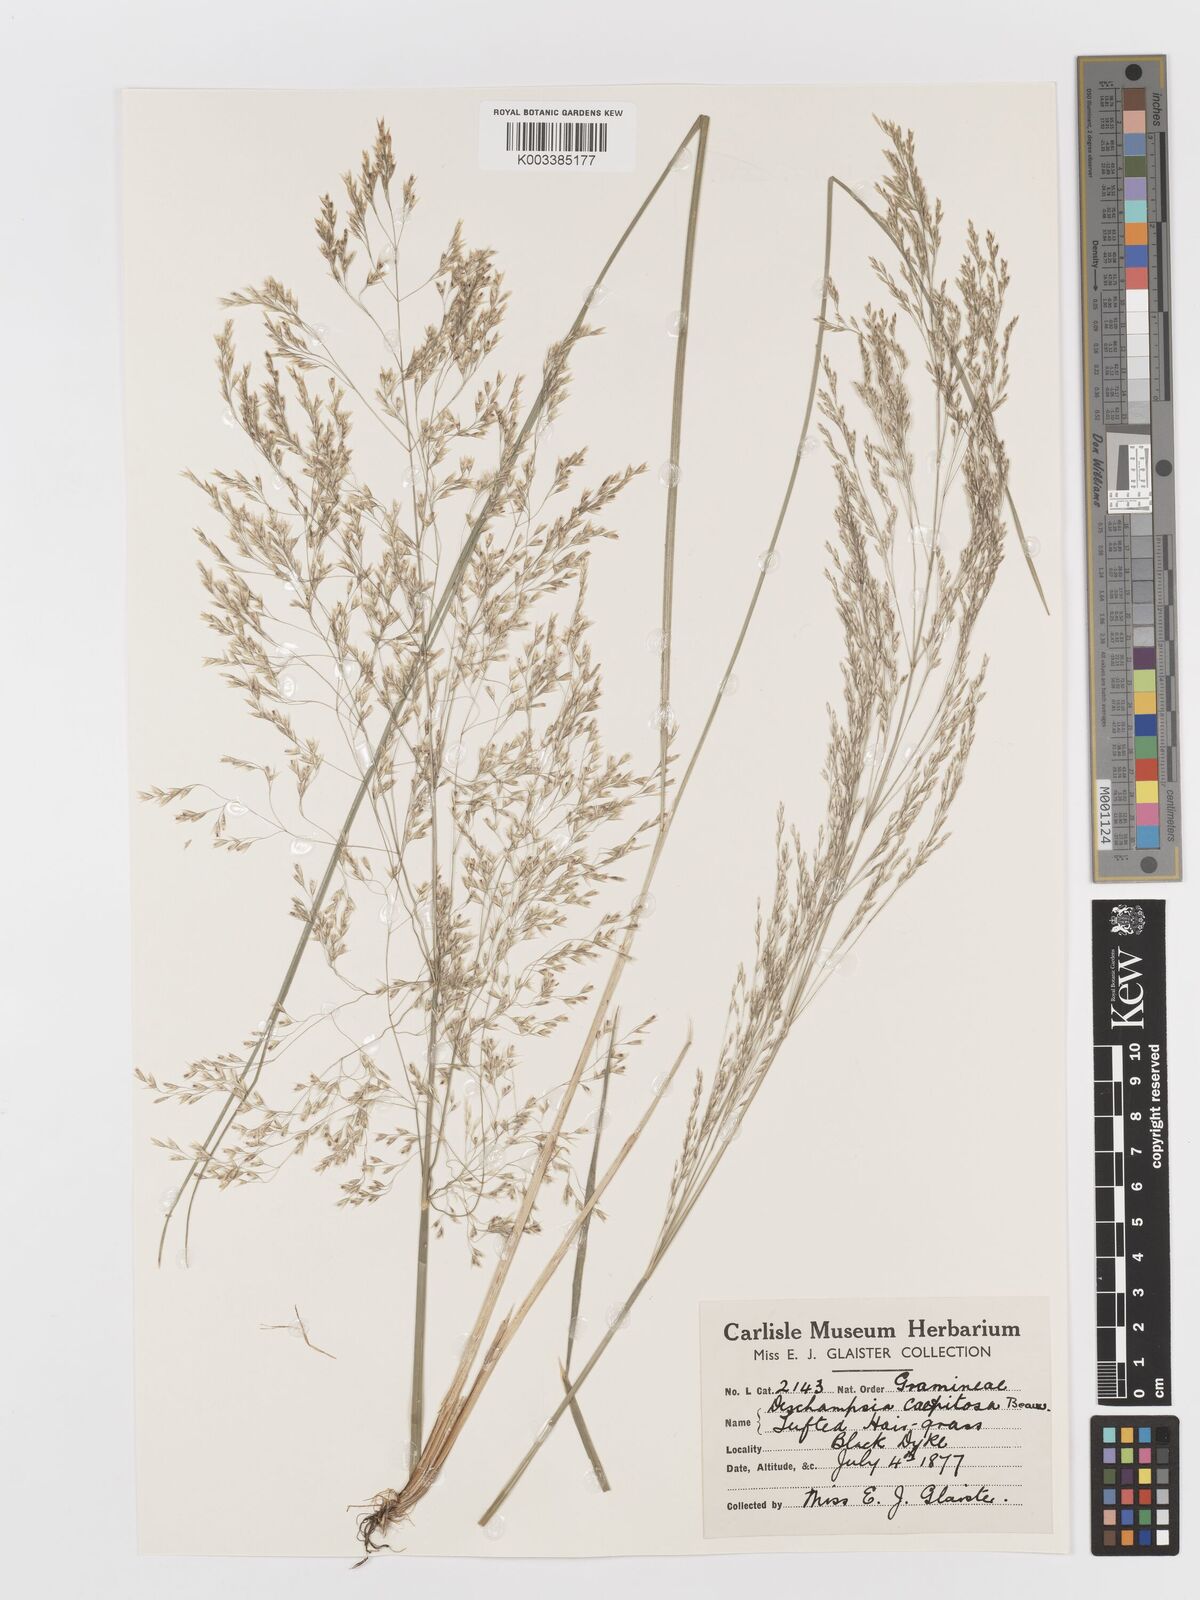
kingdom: Plantae
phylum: Tracheophyta
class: Liliopsida
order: Poales
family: Poaceae
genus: Deschampsia
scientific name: Deschampsia cespitosa
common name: Tufted hair-grass
